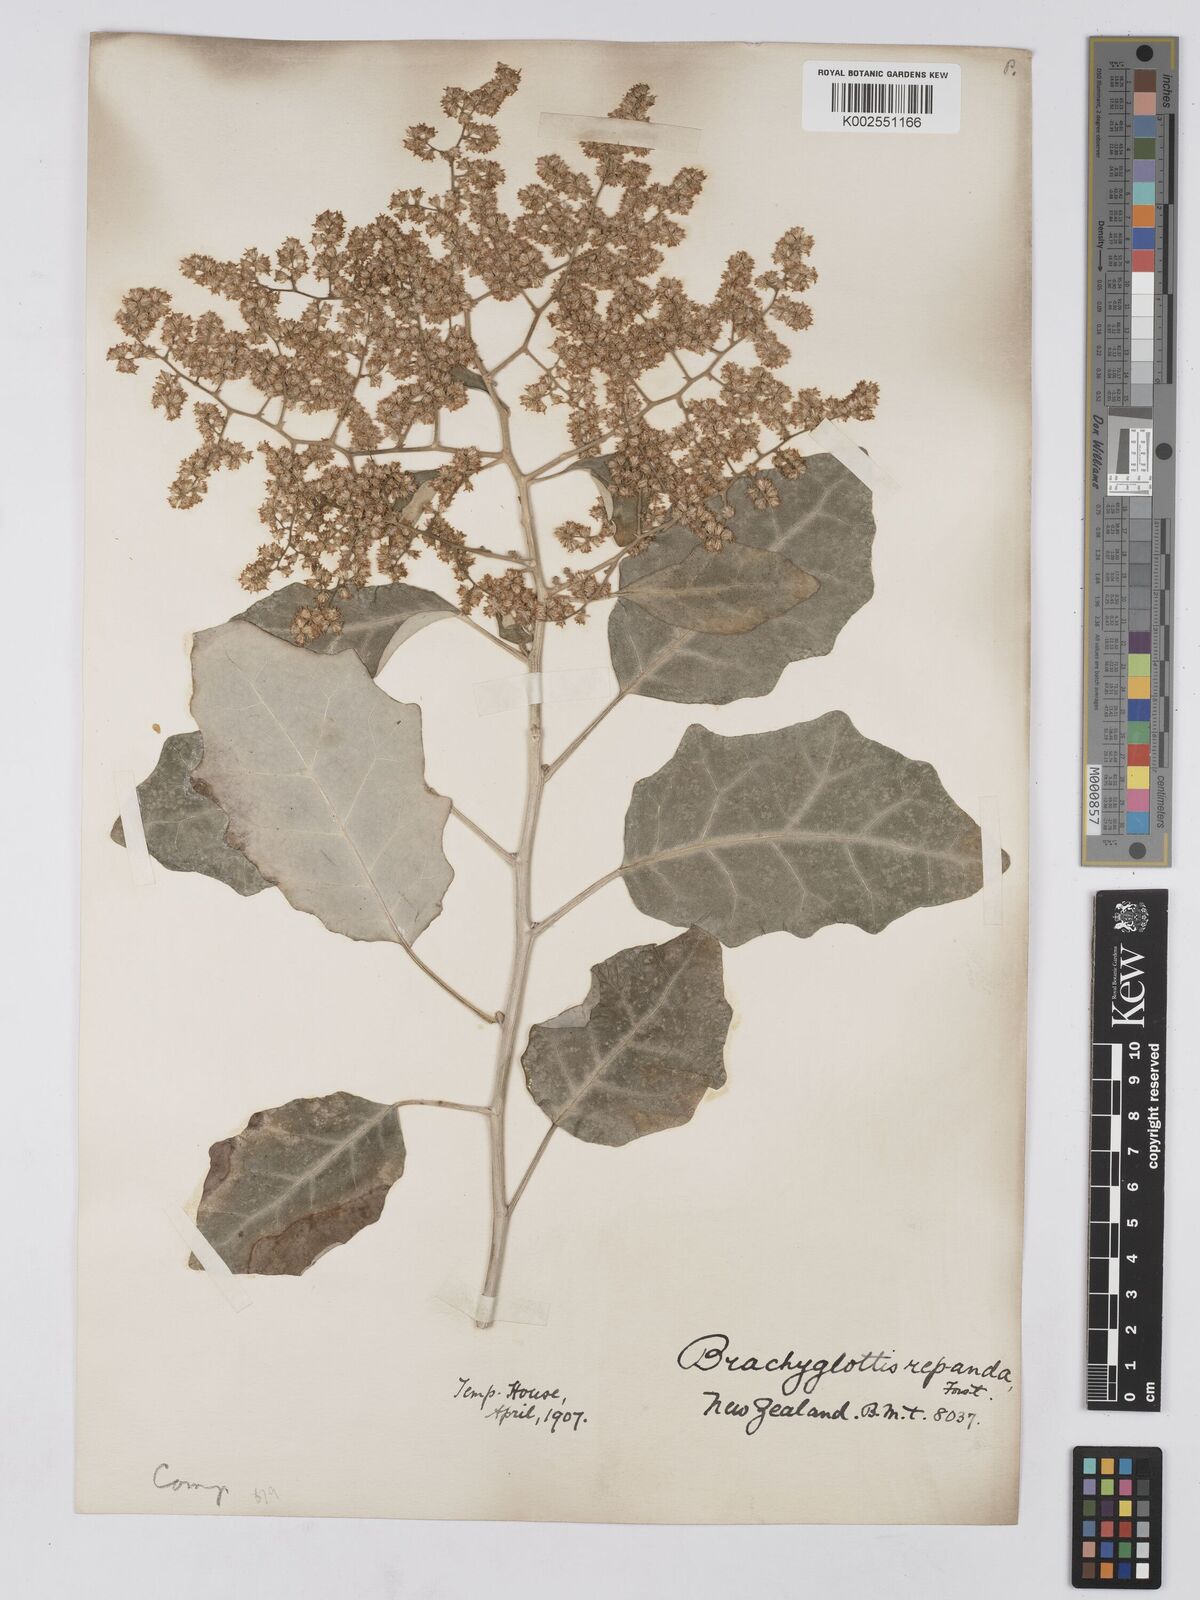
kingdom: Plantae
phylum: Tracheophyta
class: Magnoliopsida
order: Asterales
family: Asteraceae
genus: Brachyglottis
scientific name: Brachyglottis repanda
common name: Hedge ragwort
